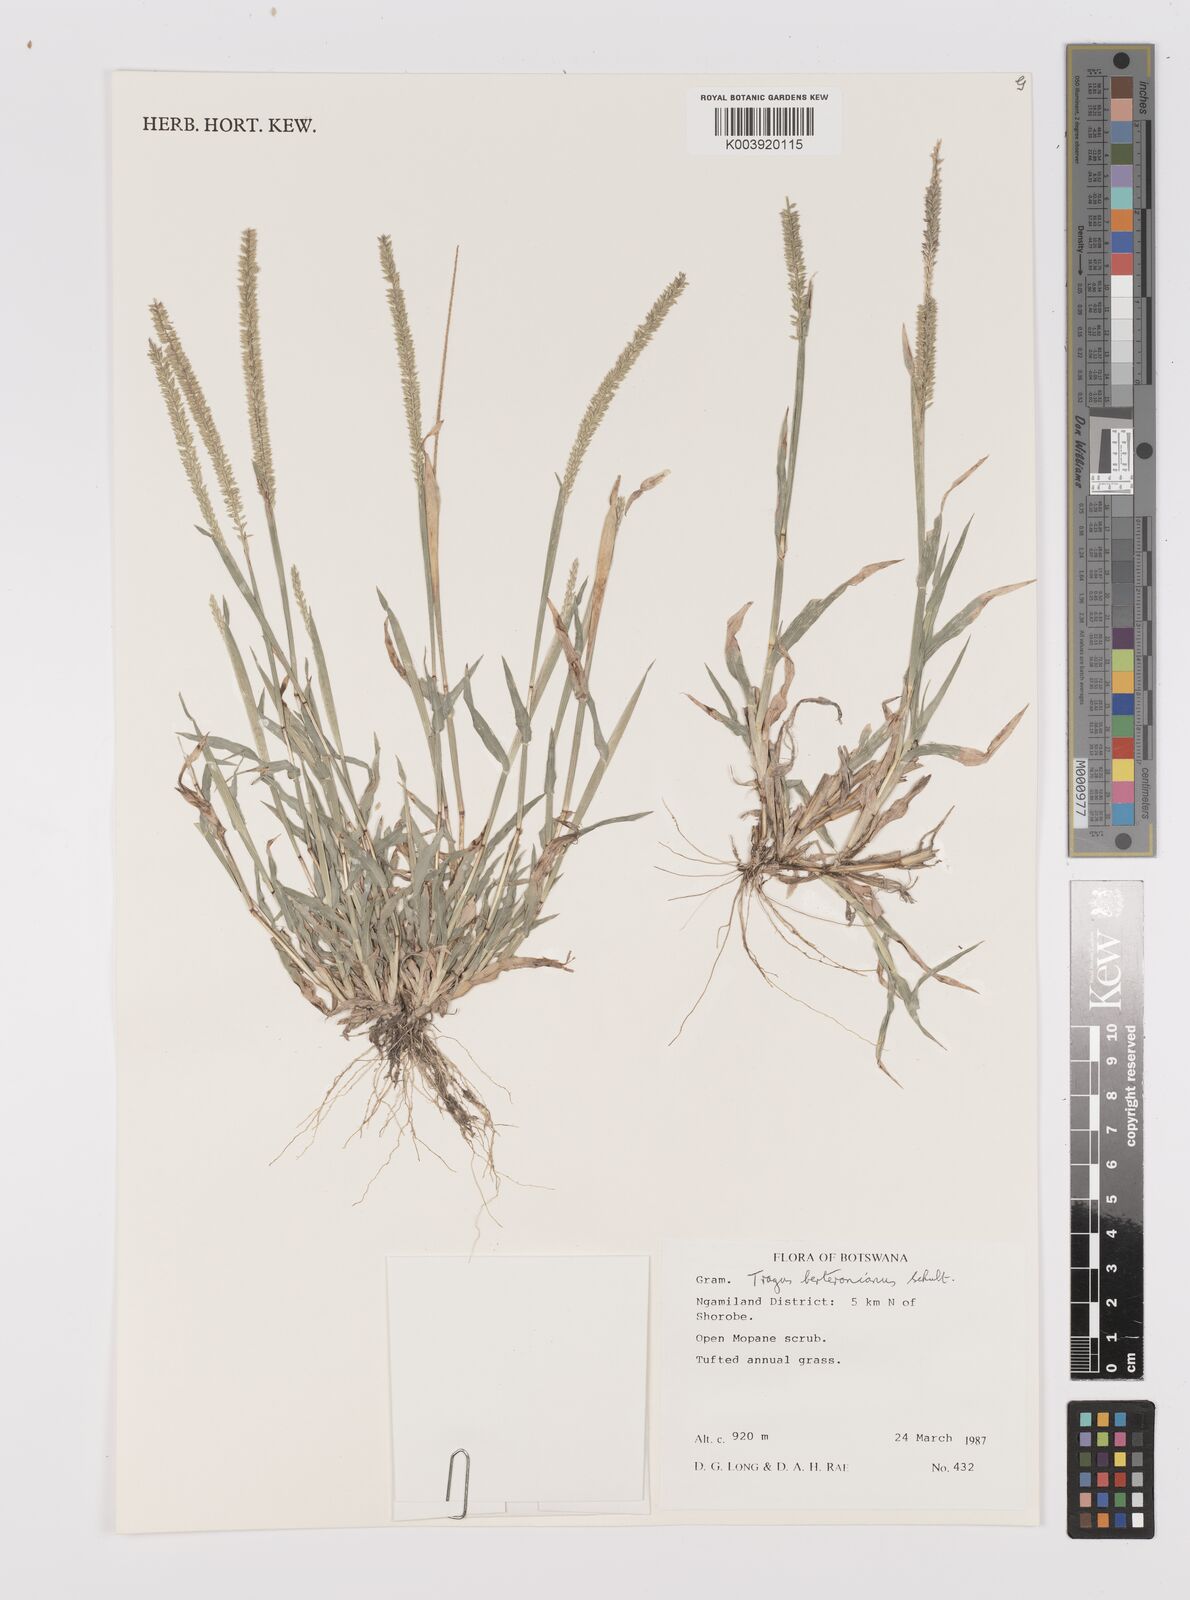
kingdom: Plantae
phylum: Tracheophyta
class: Liliopsida
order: Poales
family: Poaceae
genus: Tragus
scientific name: Tragus berteronianus
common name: African bur-grass
